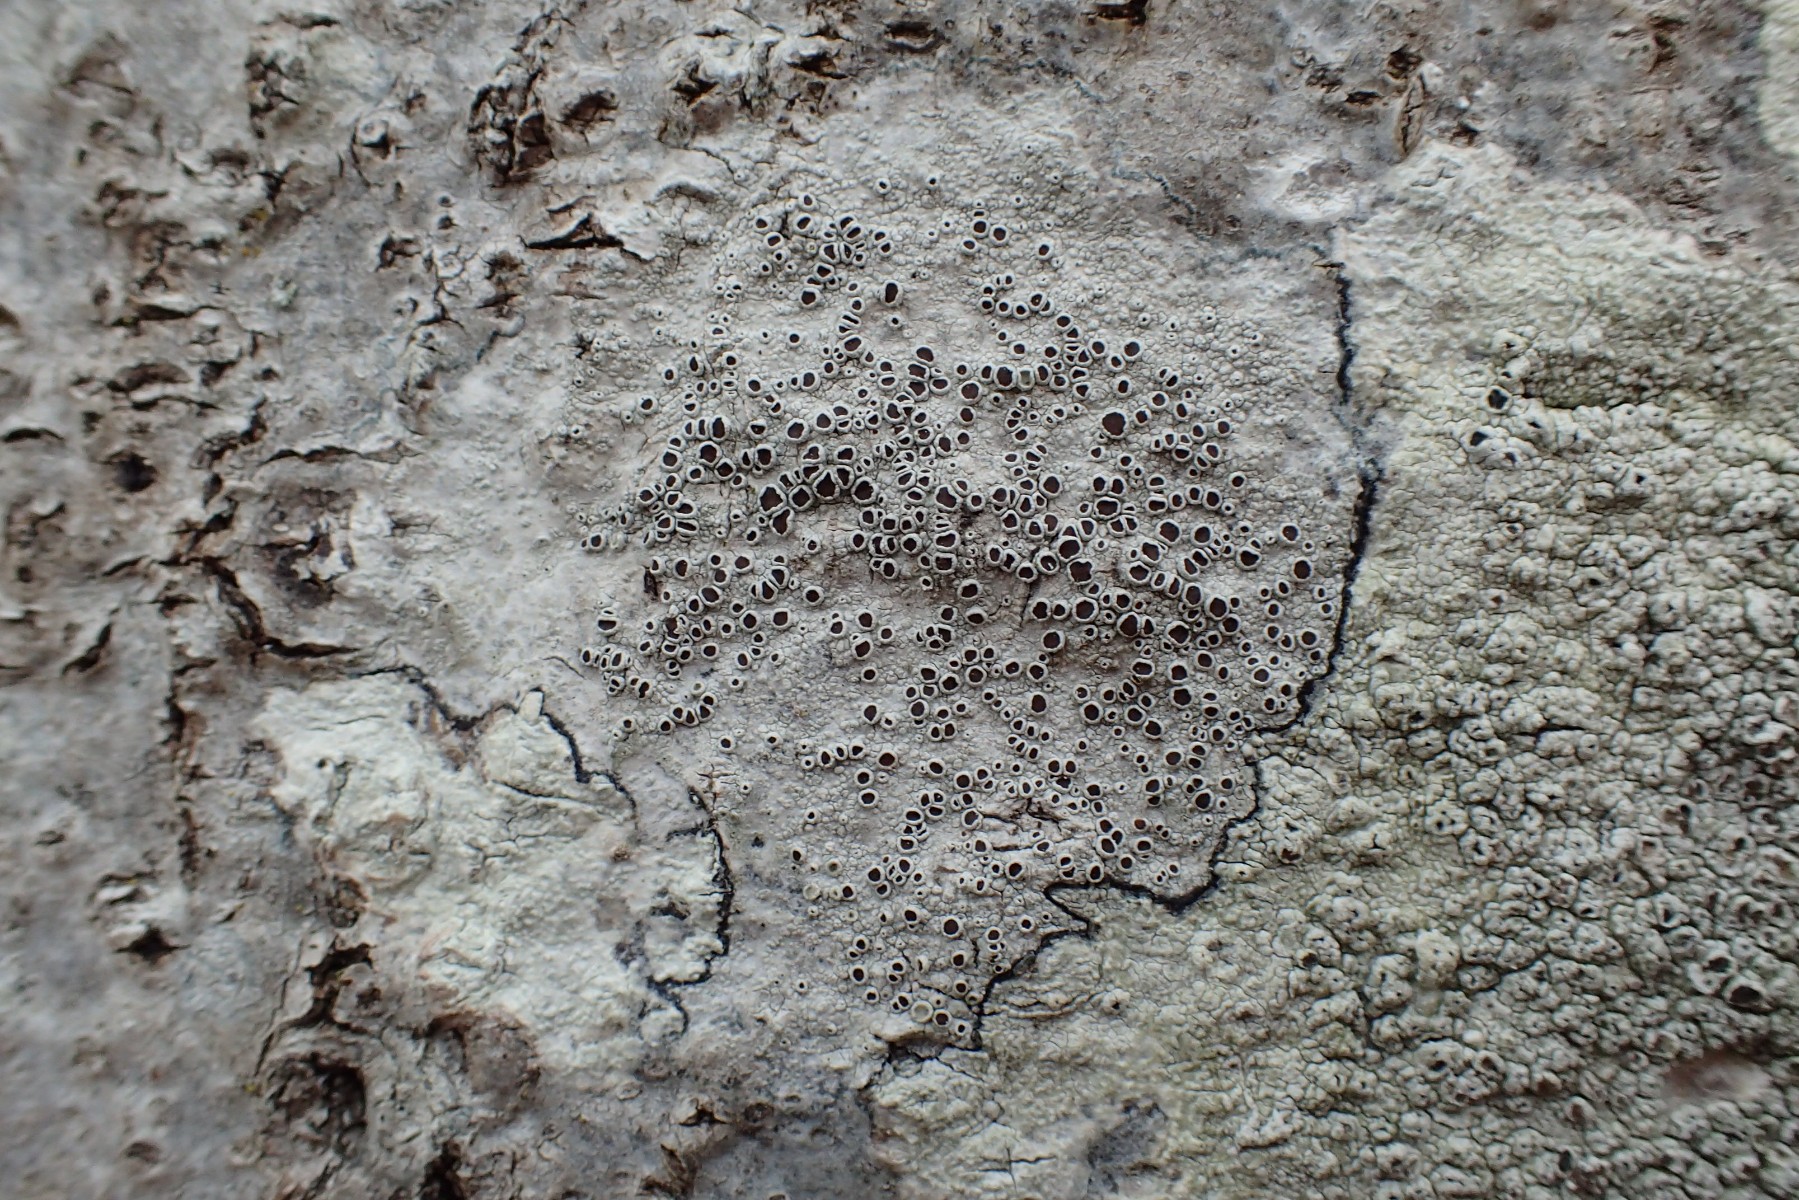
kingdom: Fungi
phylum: Ascomycota
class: Lecanoromycetes
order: Lecanorales
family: Lecanoraceae
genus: Lecanora
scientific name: Lecanora argentata
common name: sølv-kantskivelav
